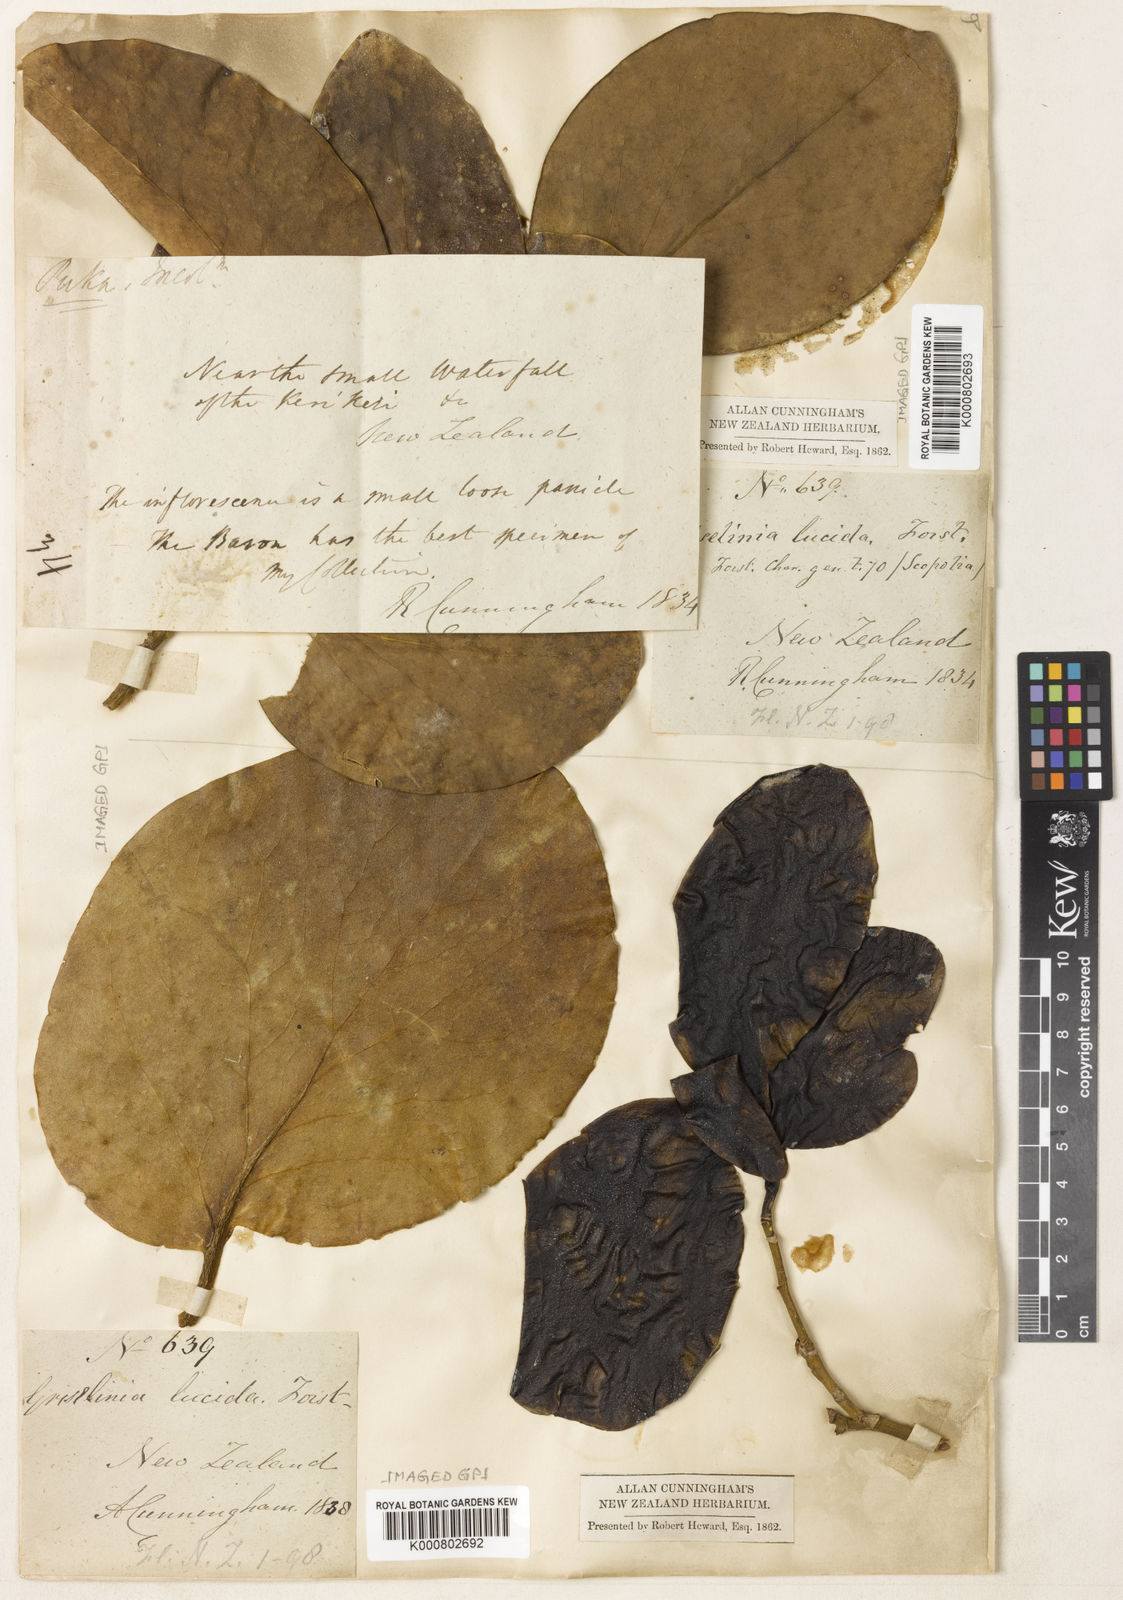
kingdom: Plantae
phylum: Tracheophyta
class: Magnoliopsida
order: Chloranthales
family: Chloranthaceae
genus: Ascarina
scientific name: Ascarina lucida
